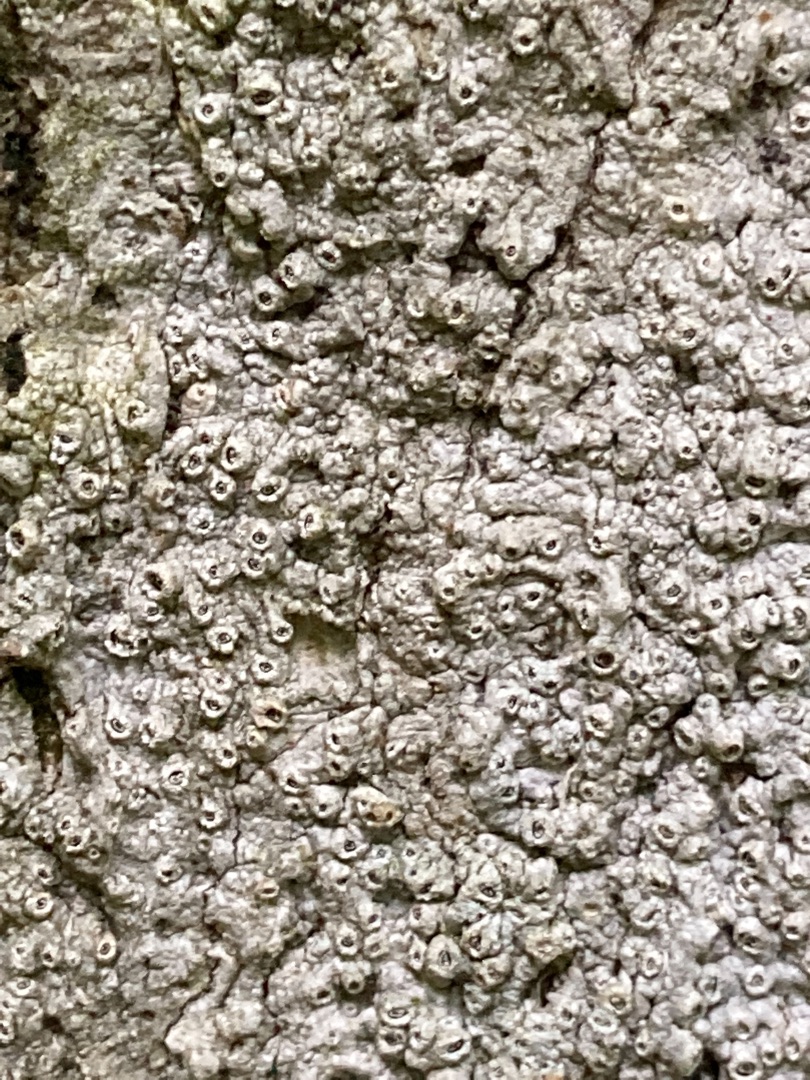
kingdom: Fungi
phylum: Ascomycota
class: Lecanoromycetes
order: Ostropales
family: Graphidaceae
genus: Thelotrema
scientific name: Thelotrema lepadinum
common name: Almindelig slørkantlav
